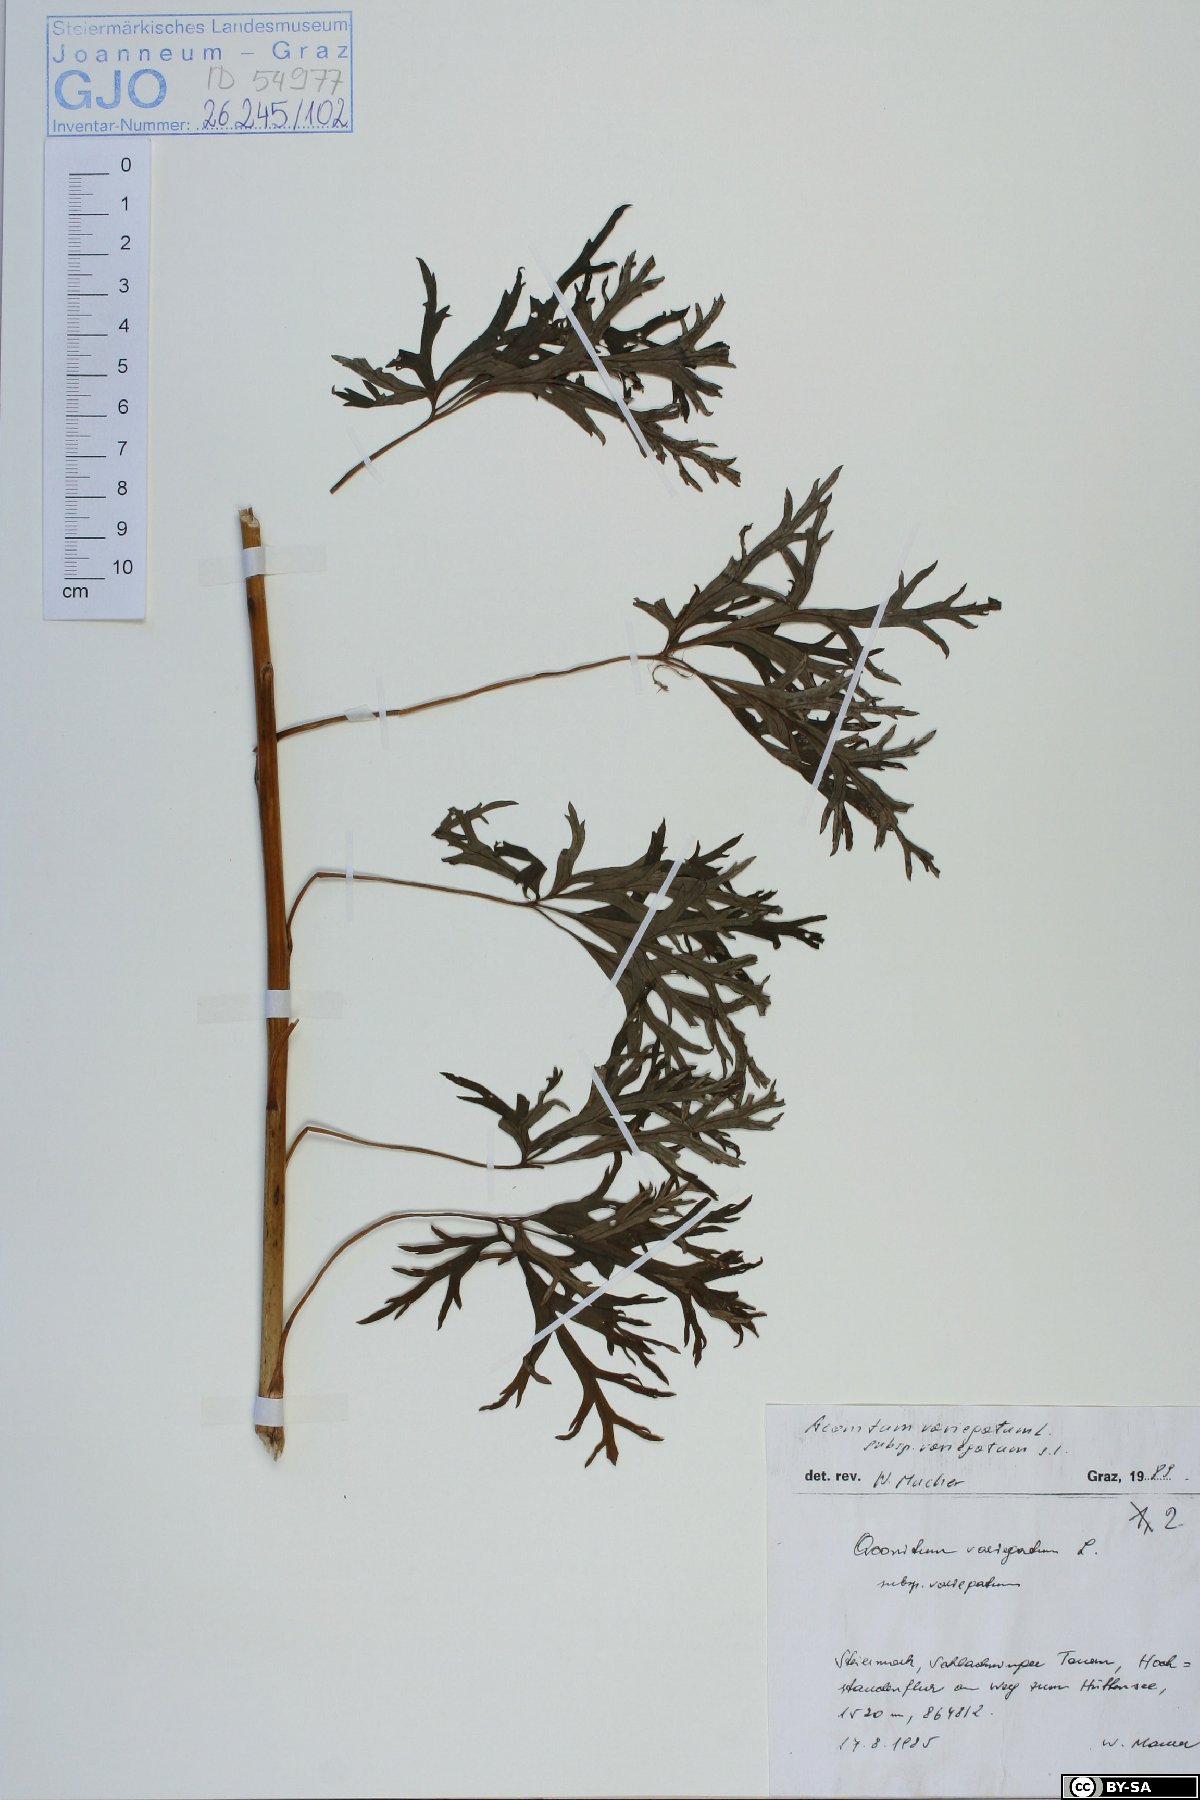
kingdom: Plantae
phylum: Tracheophyta
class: Magnoliopsida
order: Ranunculales
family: Ranunculaceae
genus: Aconitum
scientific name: Aconitum variegatum
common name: Manchurian monkshood
